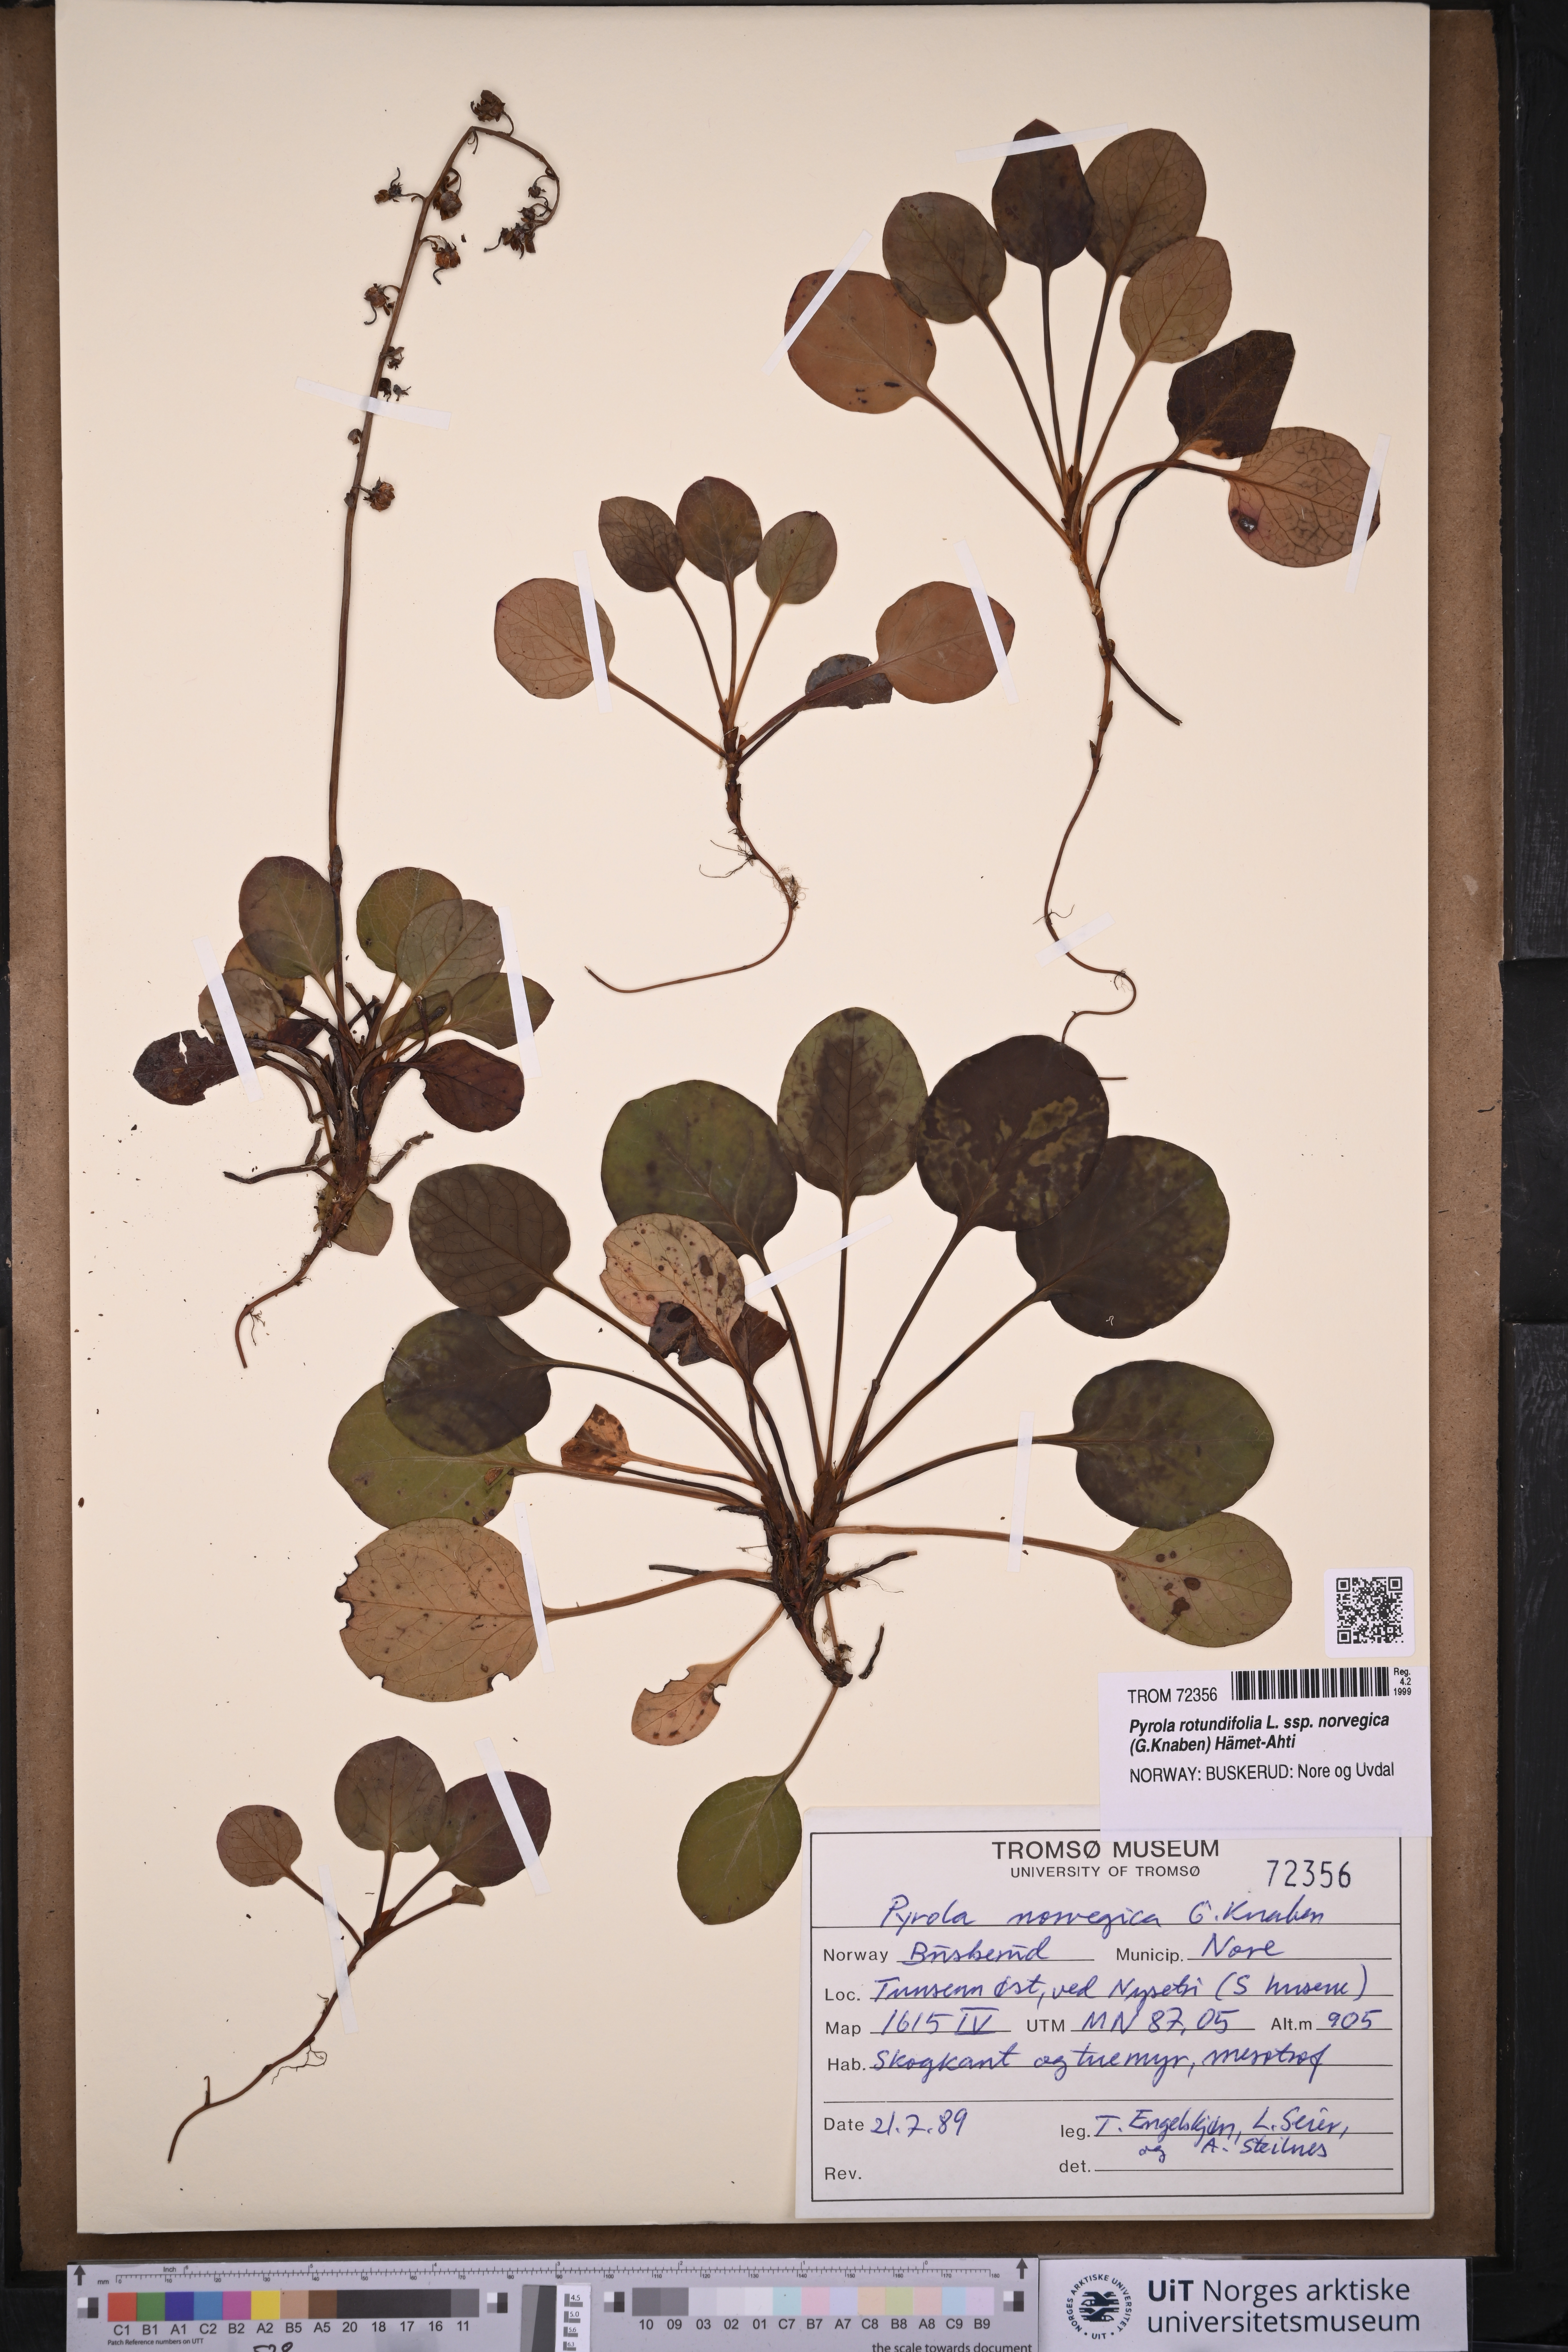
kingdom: Plantae
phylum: Tracheophyta
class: Magnoliopsida
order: Ericales
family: Ericaceae
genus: Pyrola
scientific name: Pyrola rotundifolia
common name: Round-leaved wintergreen
